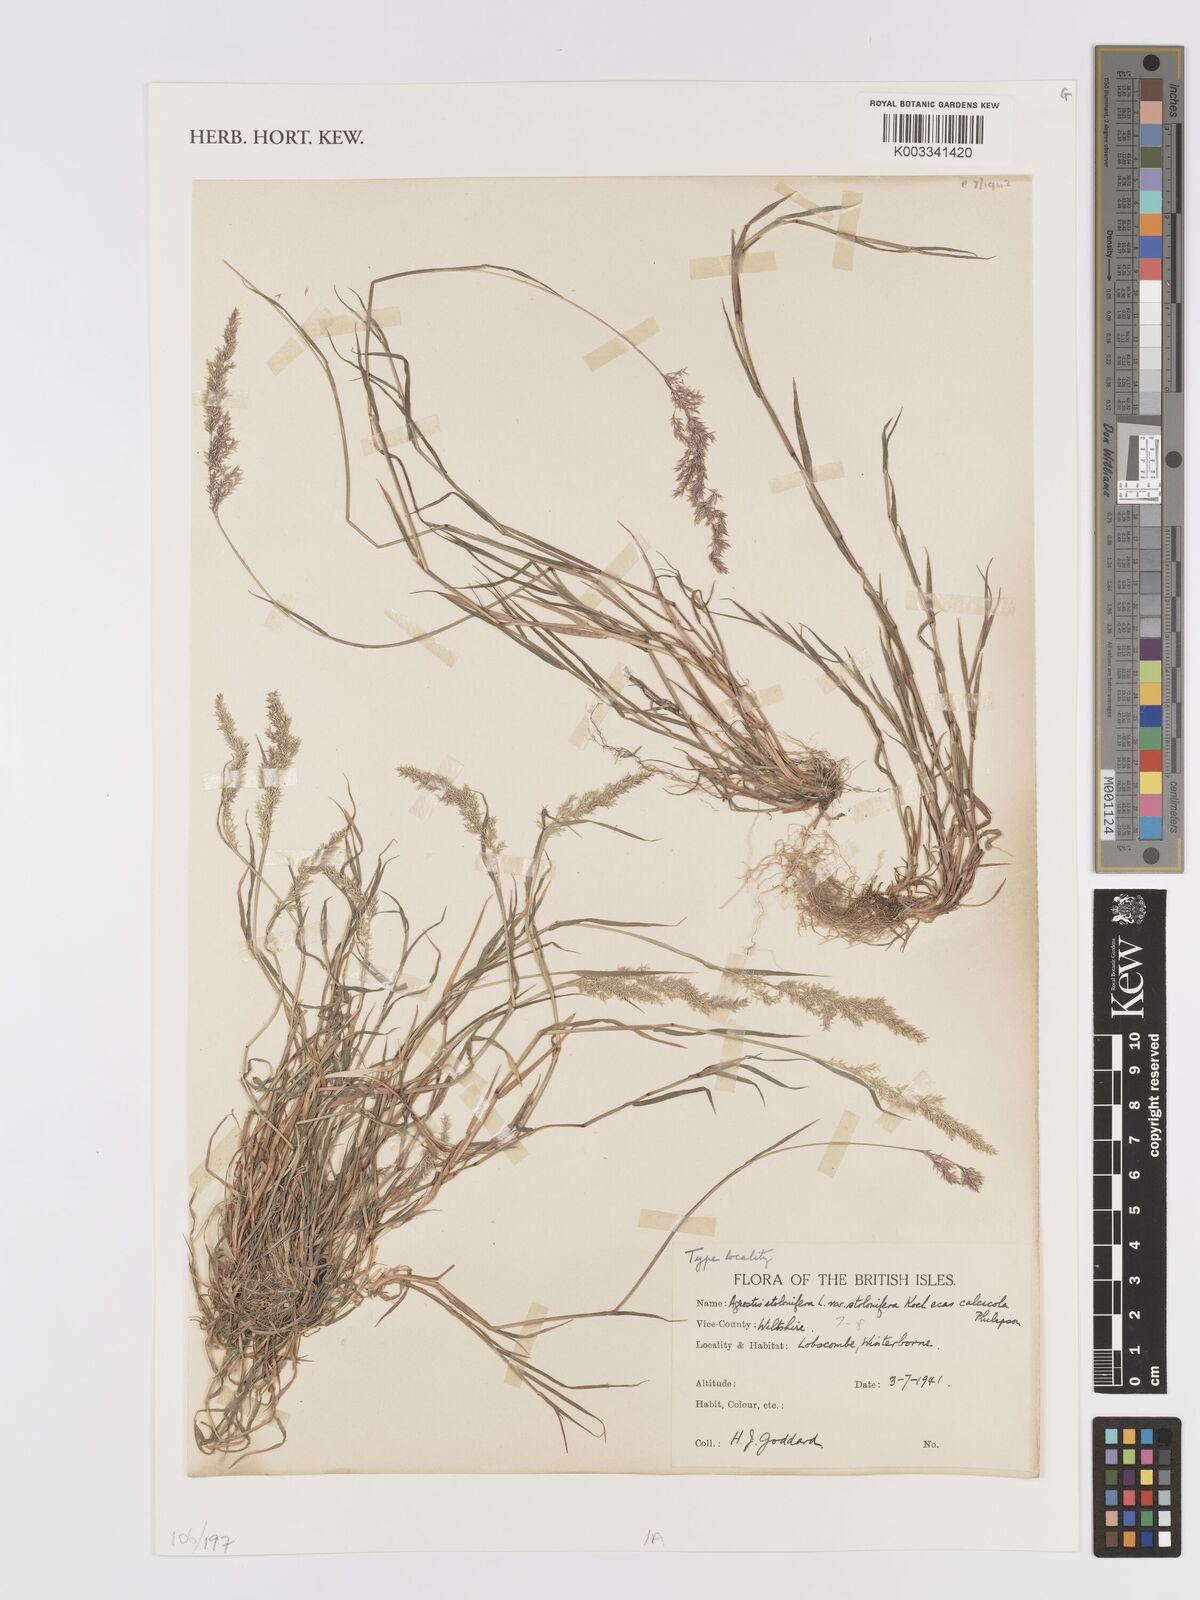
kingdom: Plantae
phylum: Tracheophyta
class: Liliopsida
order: Poales
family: Poaceae
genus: Agrostis
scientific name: Agrostis stolonifera
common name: Creeping bentgrass
